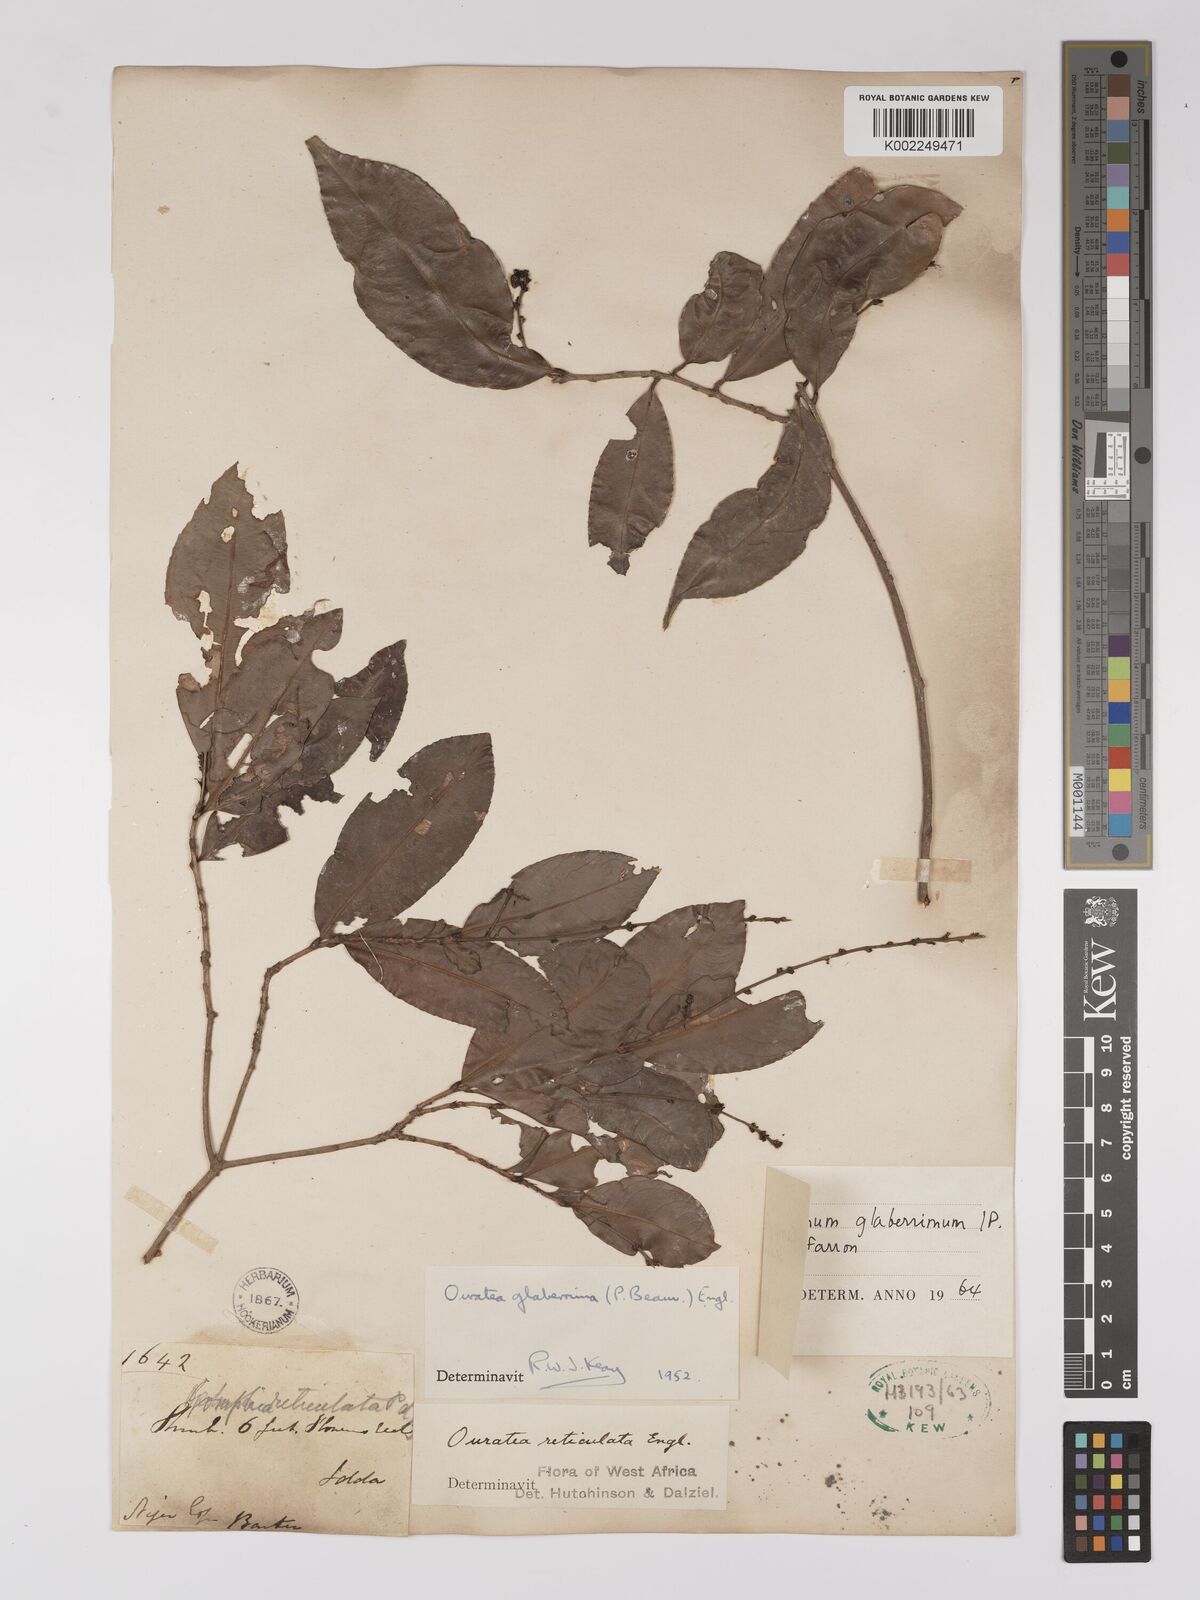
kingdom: Plantae
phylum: Tracheophyta
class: Magnoliopsida
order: Malpighiales
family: Ochnaceae
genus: Campylospermum
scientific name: Campylospermum glaberrimum
